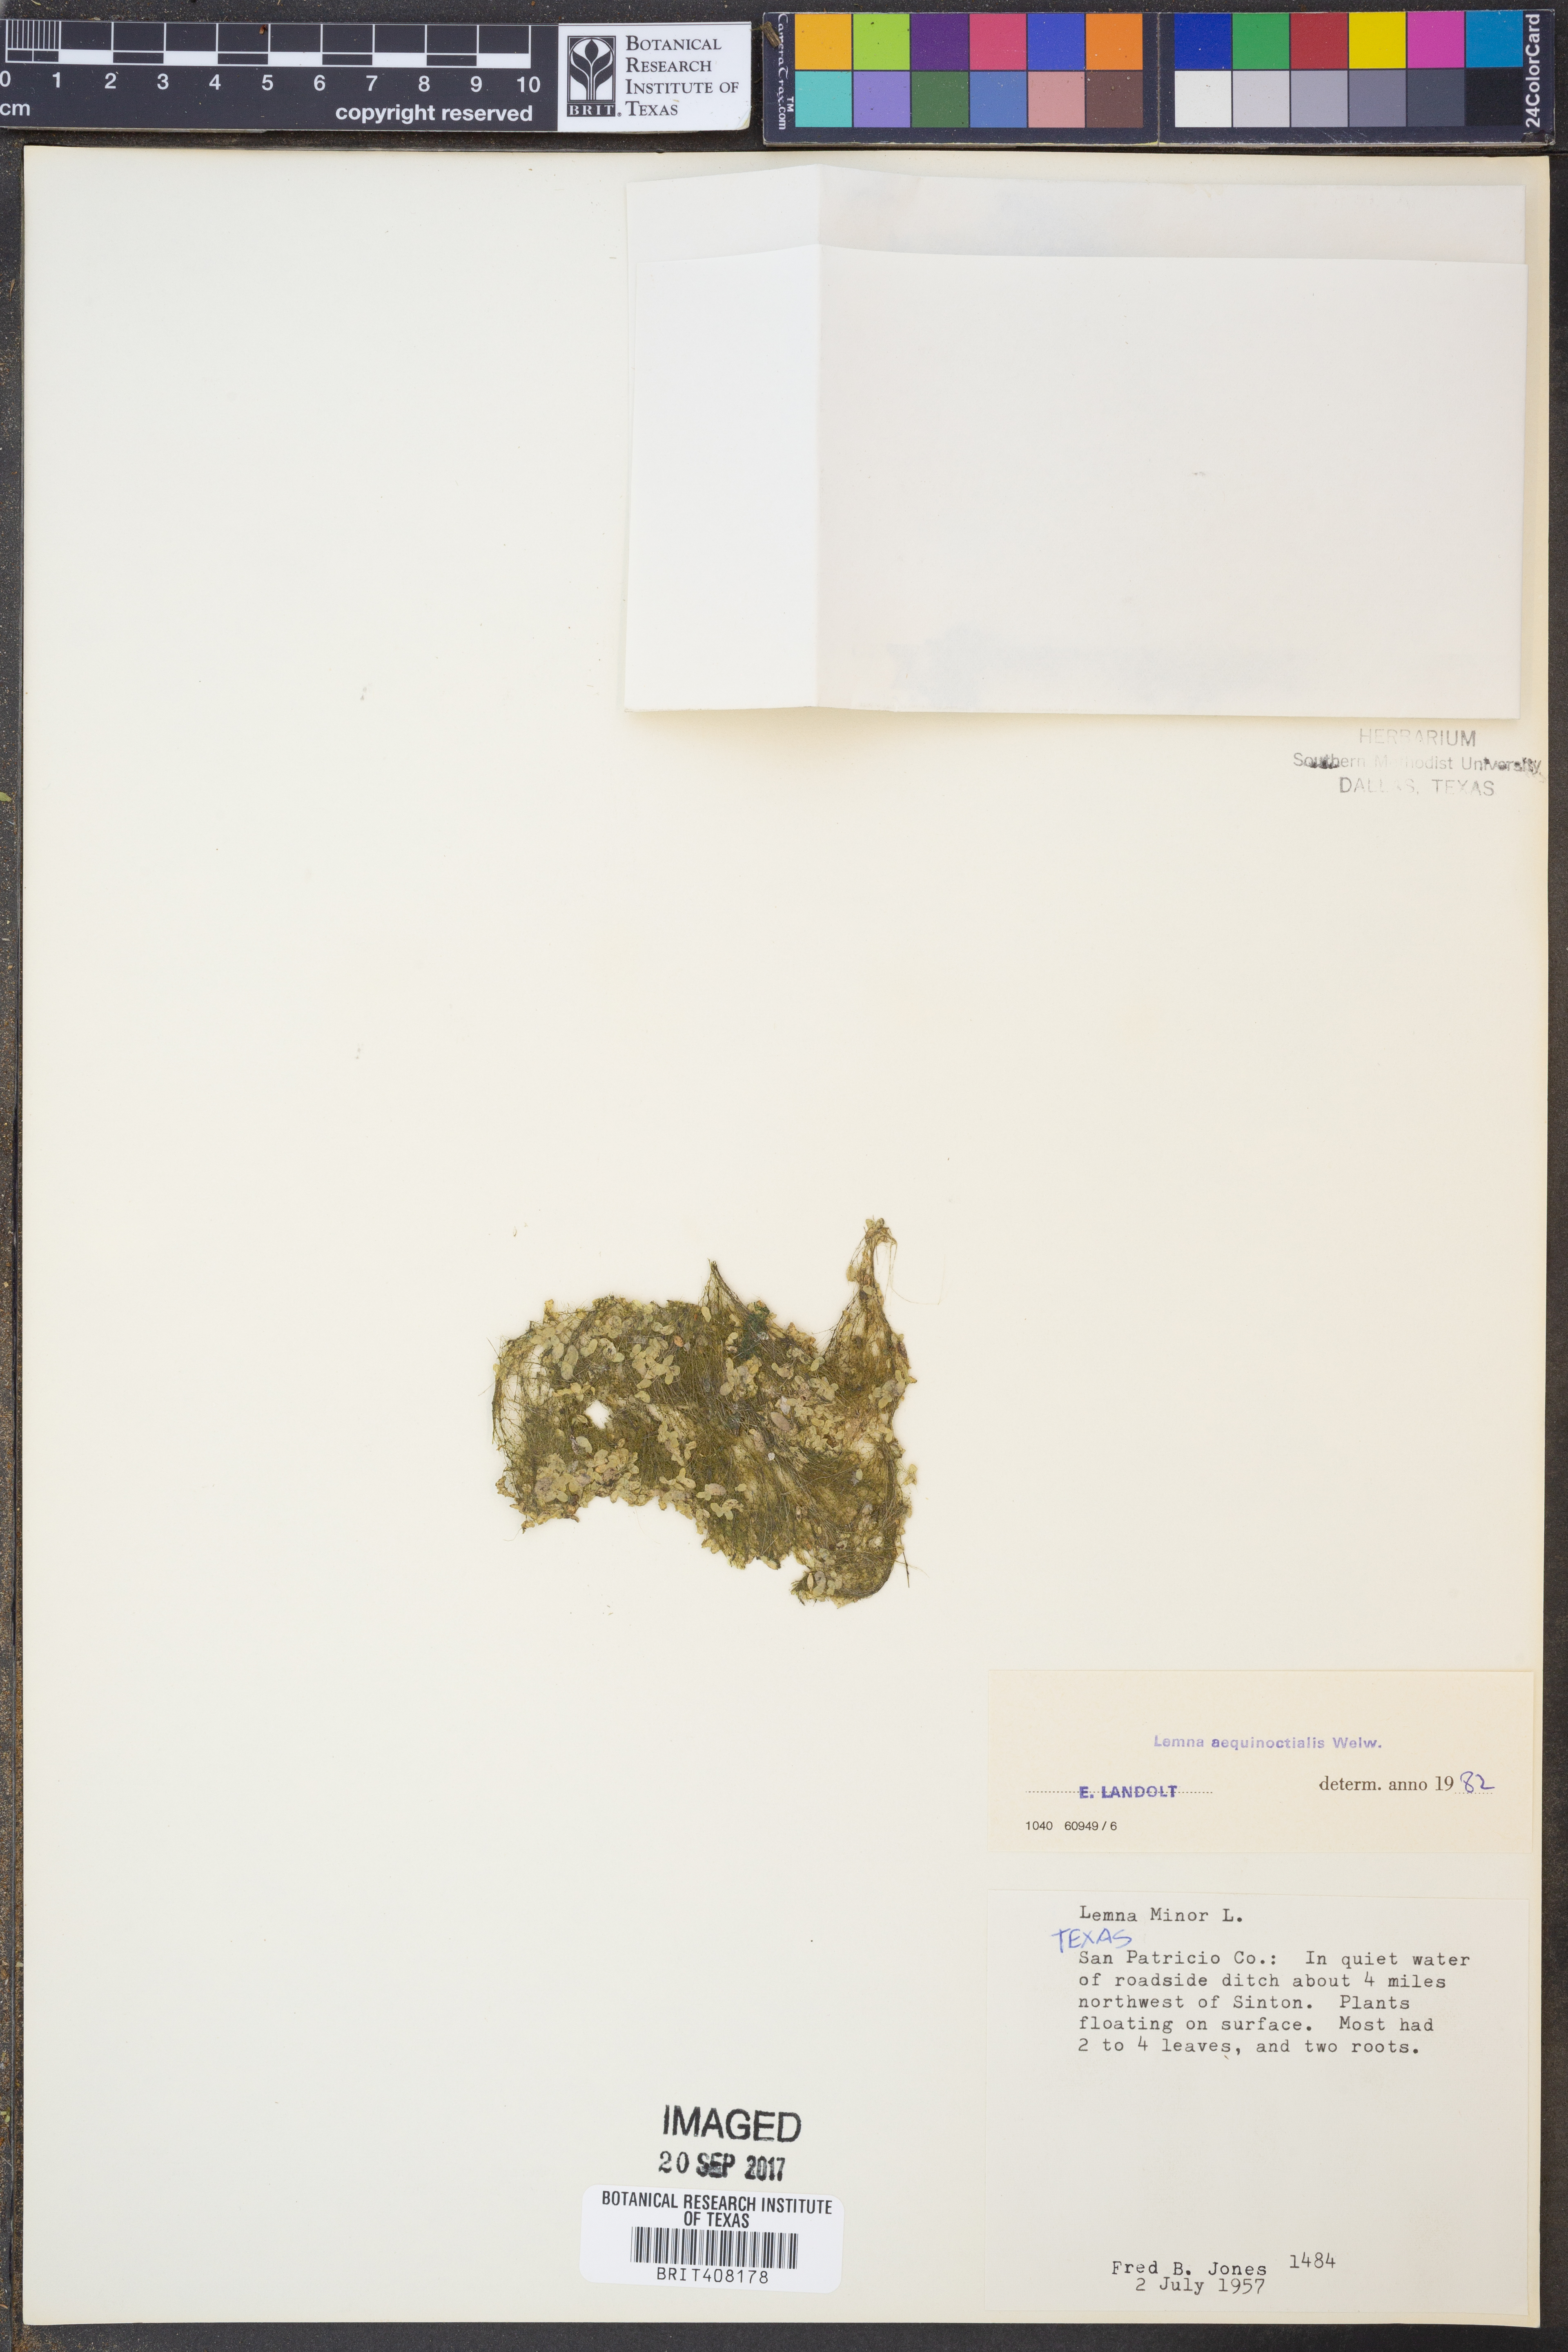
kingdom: Plantae
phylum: Tracheophyta
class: Liliopsida
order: Alismatales
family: Araceae
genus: Lemna
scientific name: Lemna aequinoctialis
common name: Duckweed
